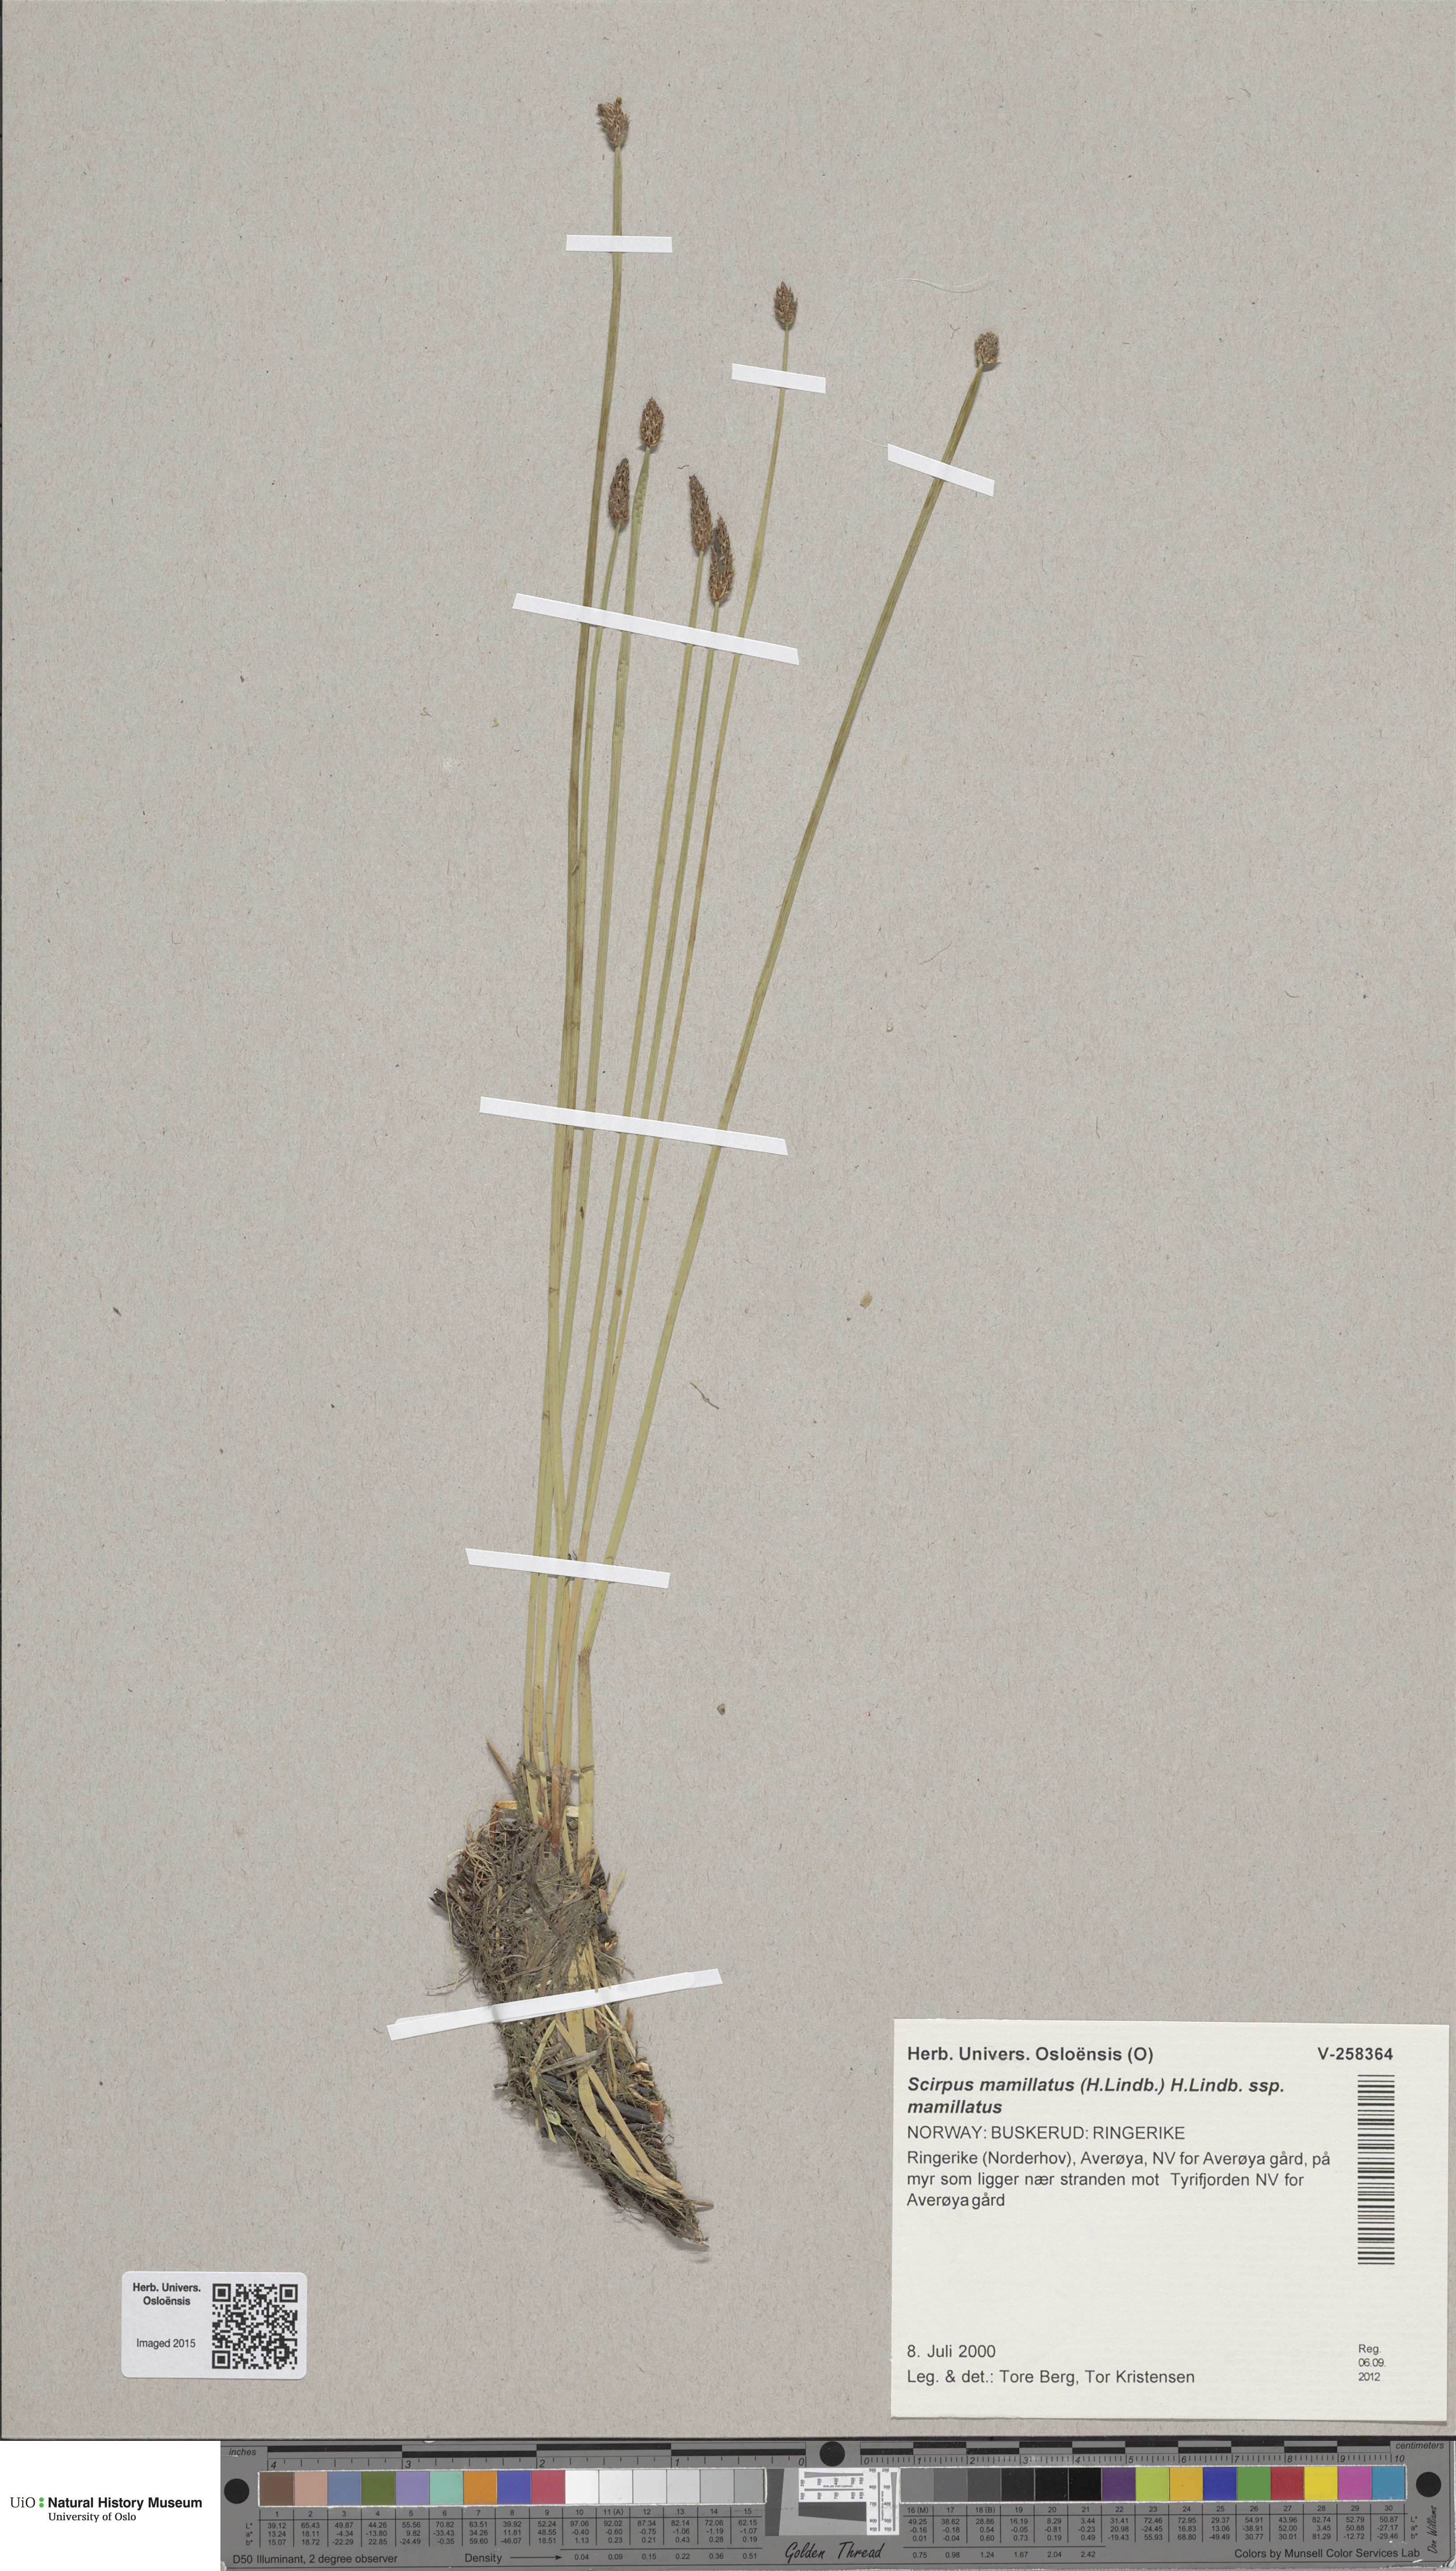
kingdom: Plantae
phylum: Tracheophyta
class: Liliopsida
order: Poales
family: Cyperaceae
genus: Eleocharis
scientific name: Eleocharis mamillata
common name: Northern spike-rush
